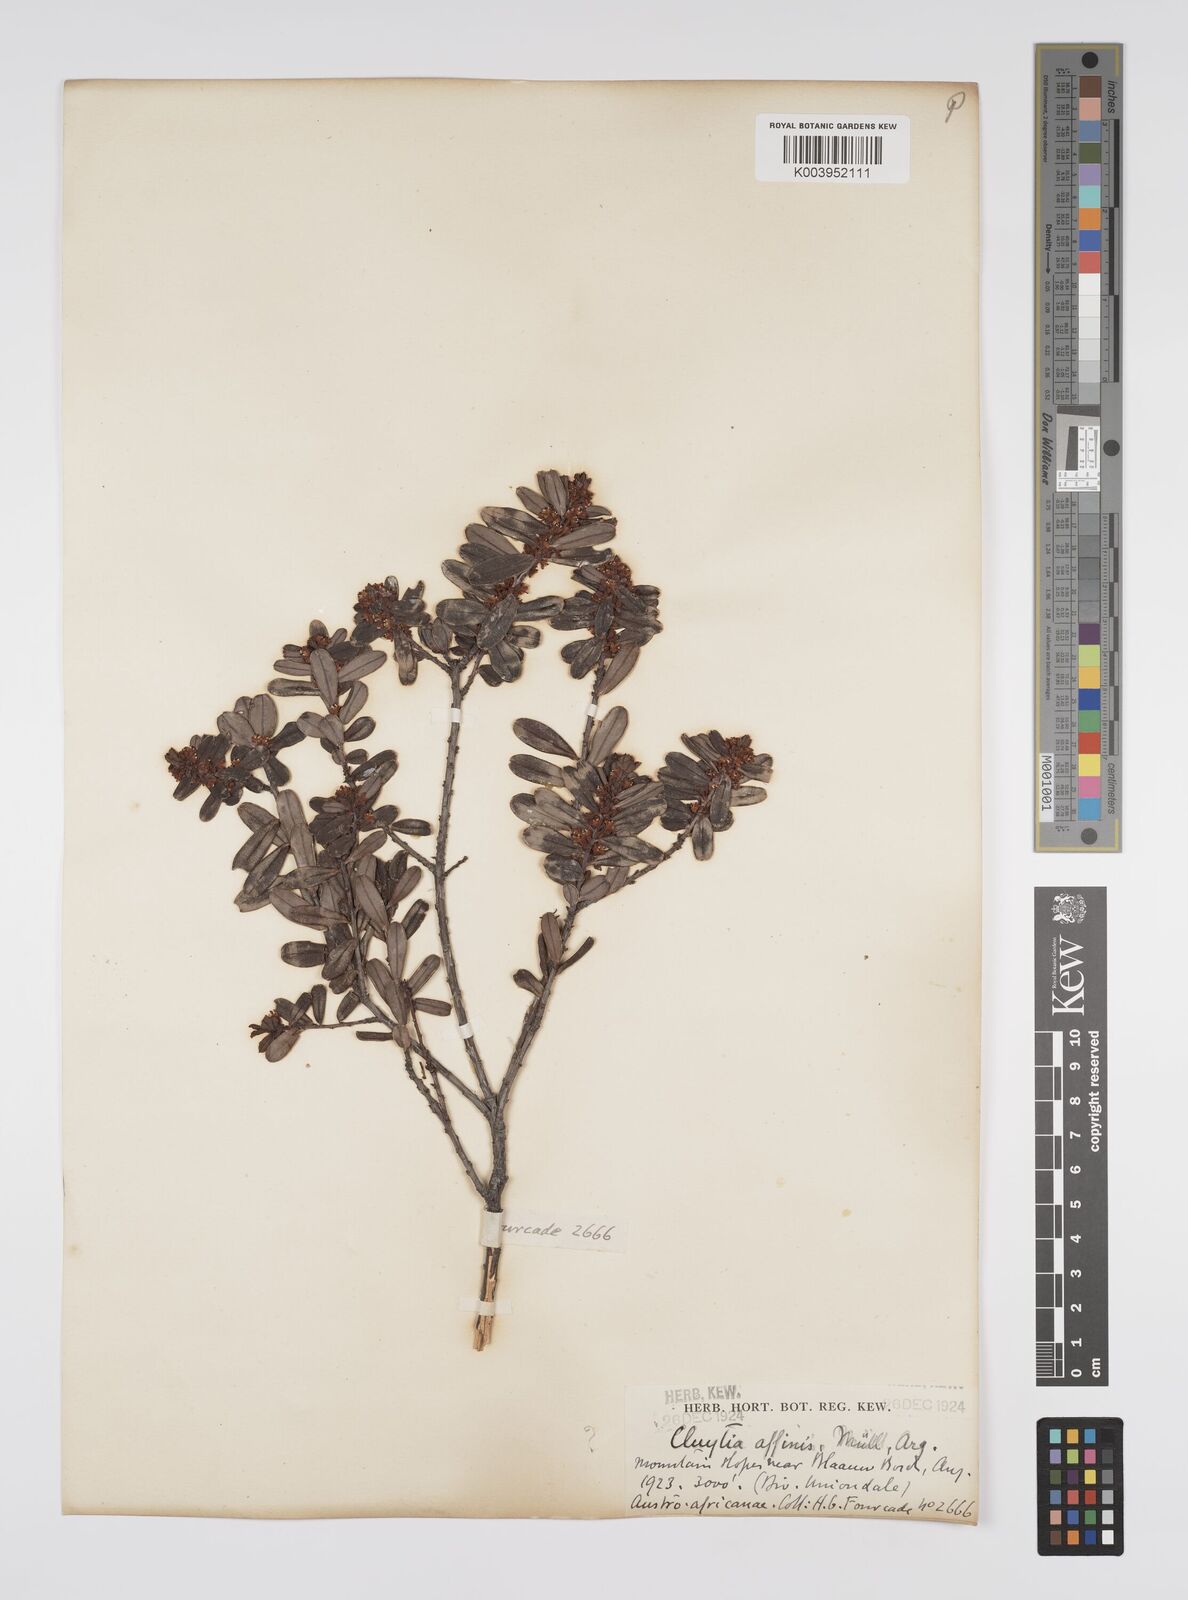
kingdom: Plantae
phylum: Tracheophyta
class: Magnoliopsida
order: Malpighiales
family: Peraceae
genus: Clutia
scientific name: Clutia affinis
